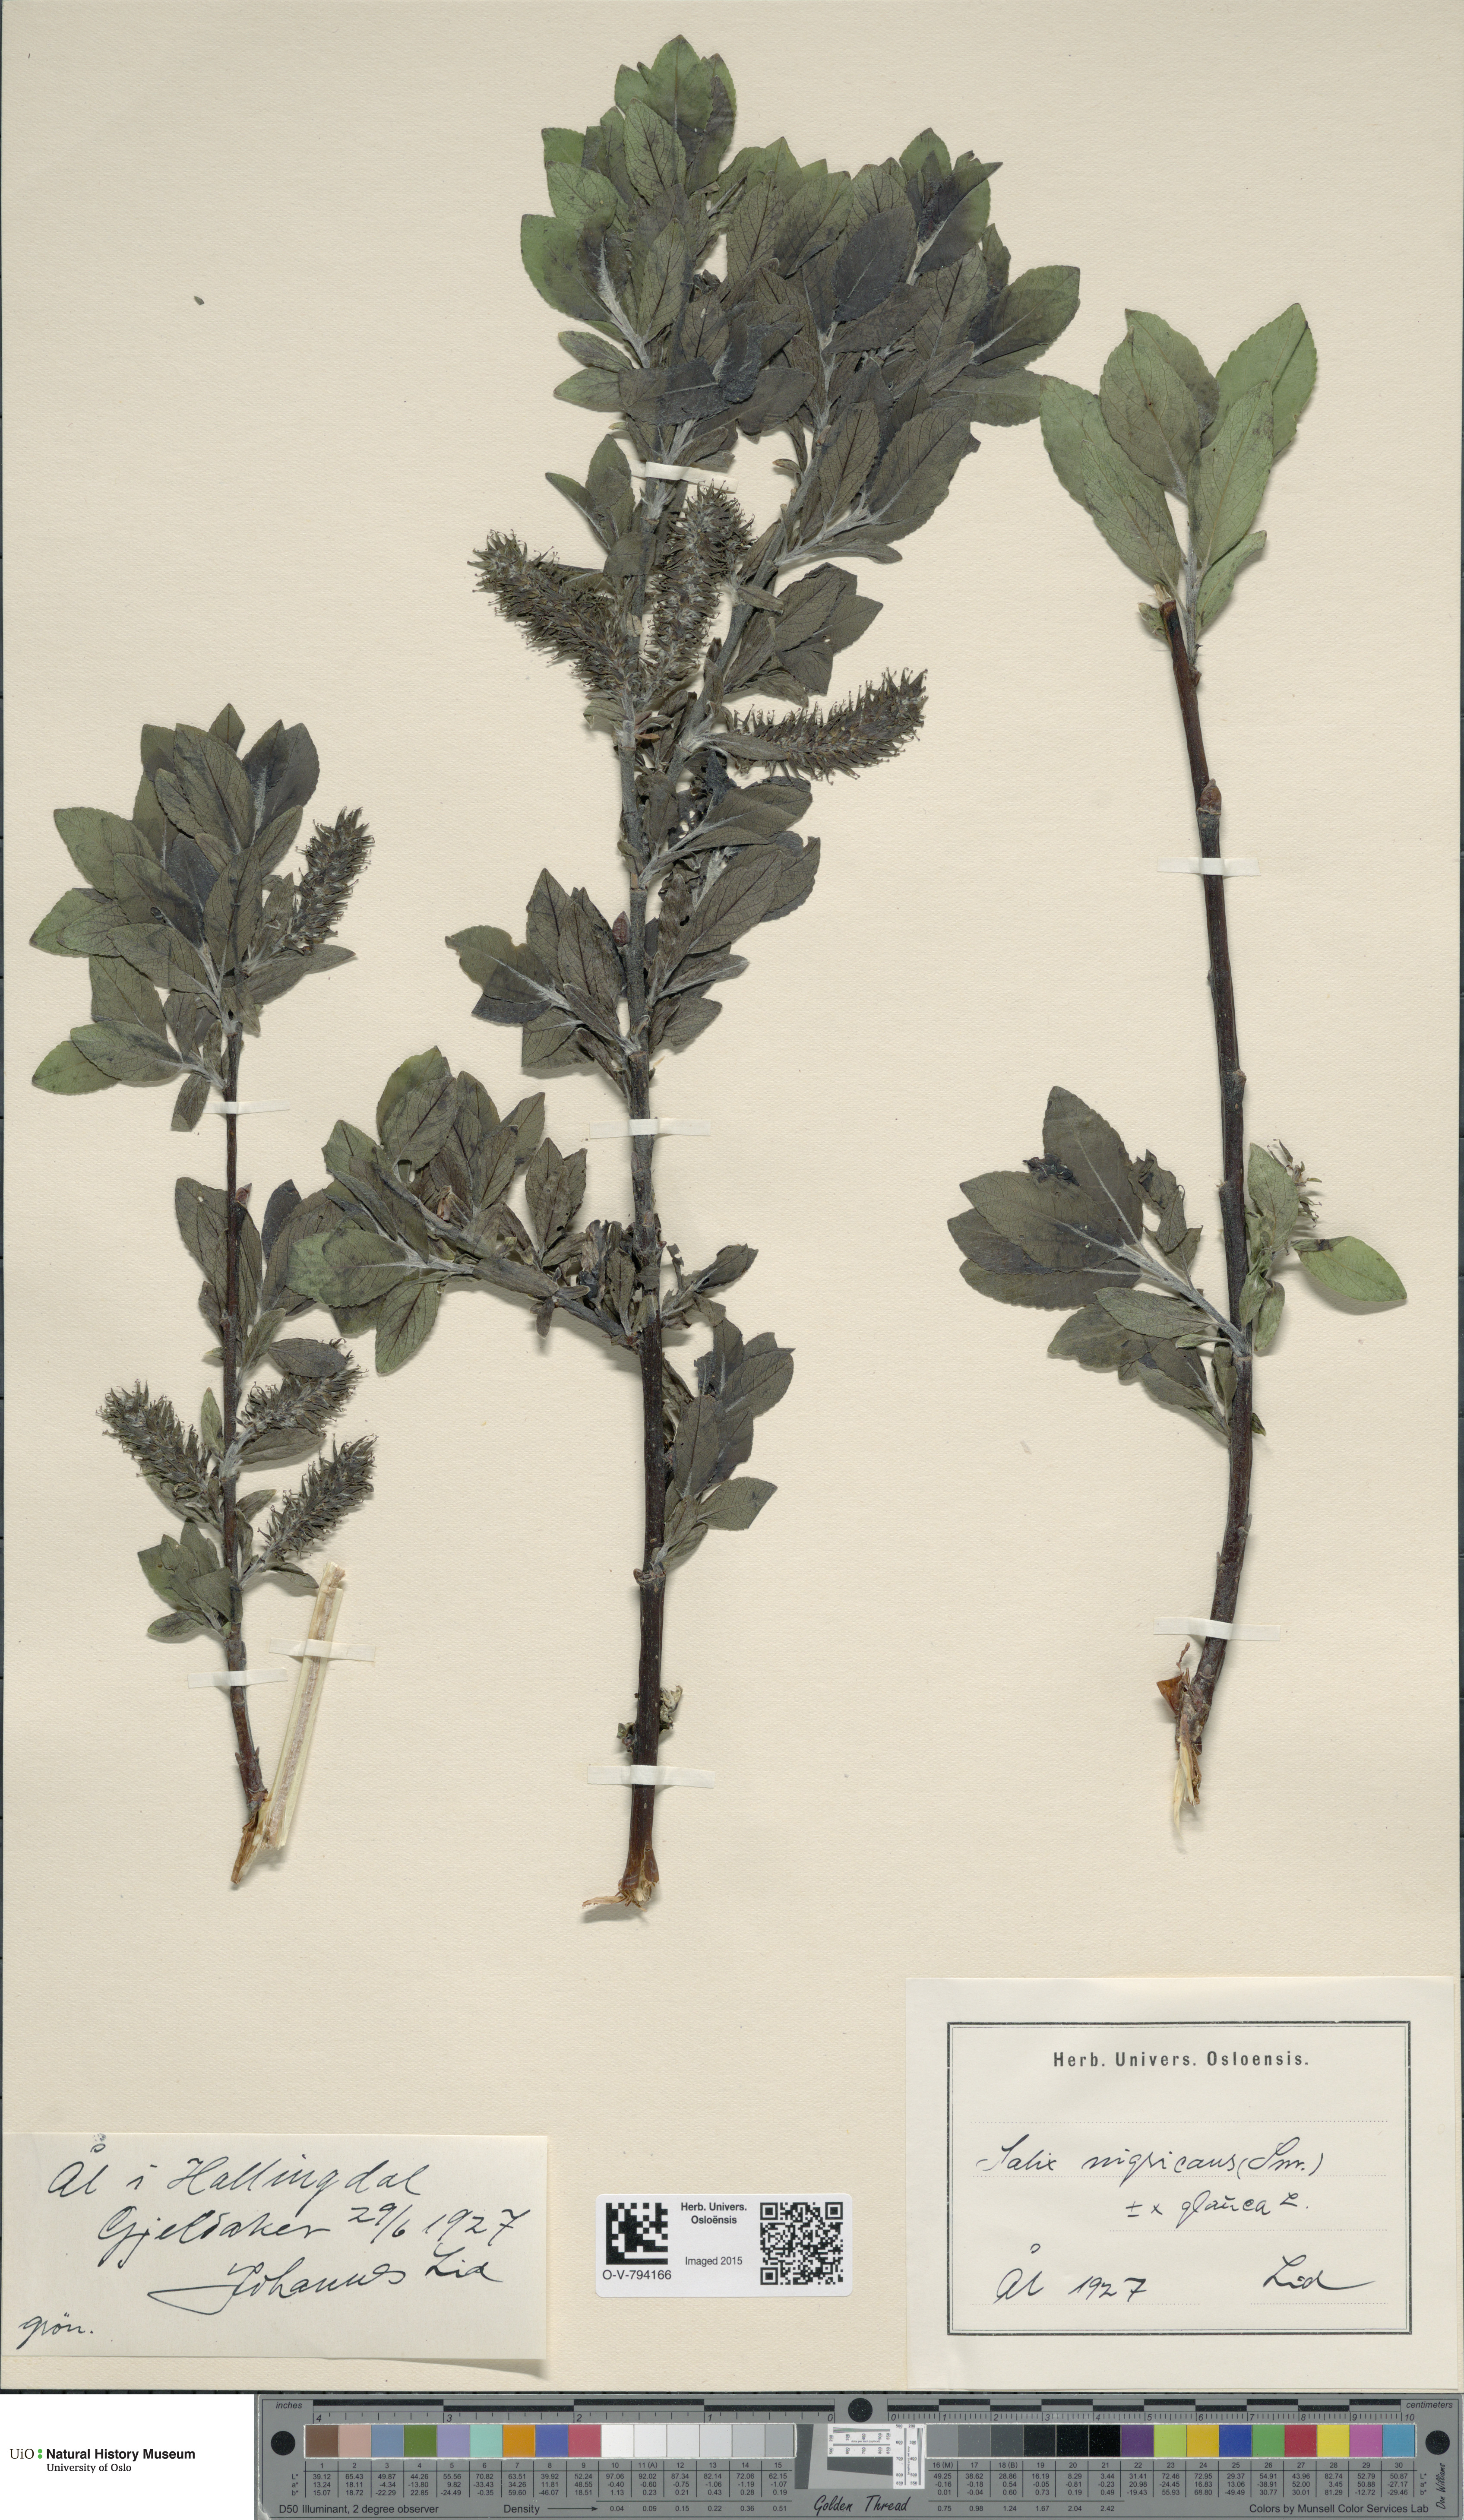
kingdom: Plantae
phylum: Tracheophyta
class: Magnoliopsida
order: Malpighiales
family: Salicaceae
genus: Salix
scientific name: Salix myrsinifolia
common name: Dark-leaved willow
